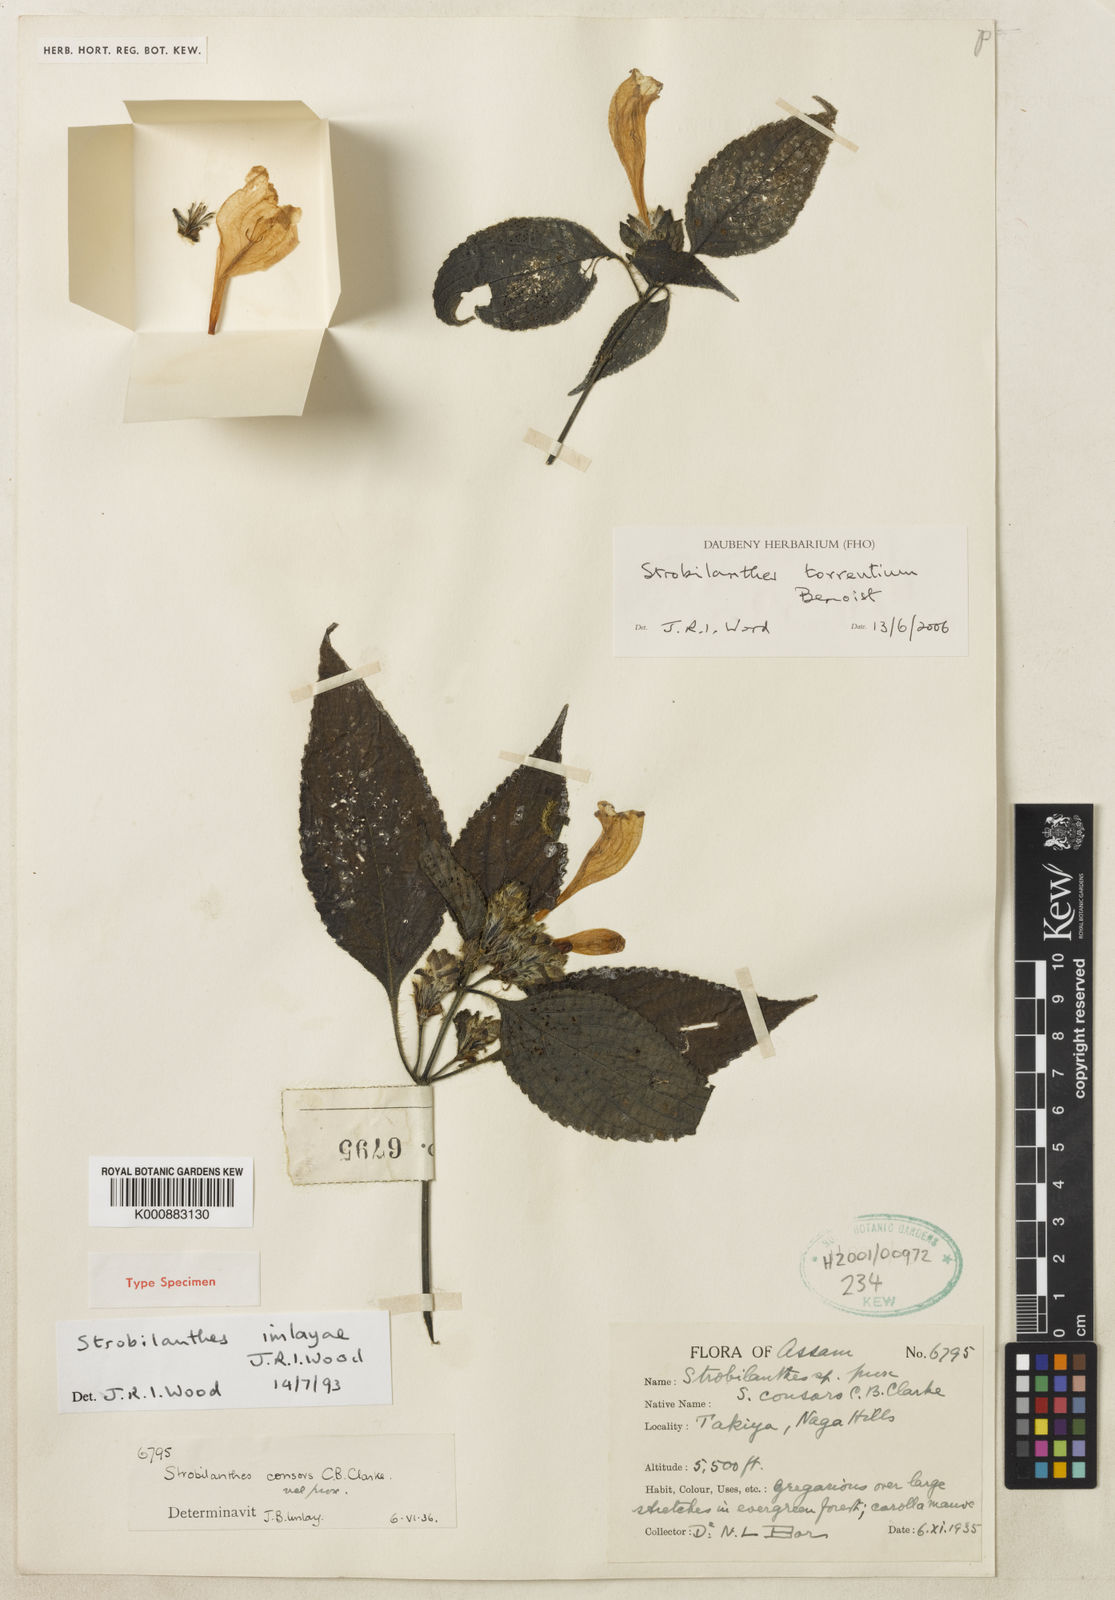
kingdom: Plantae
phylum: Tracheophyta
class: Magnoliopsida
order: Lamiales
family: Acanthaceae
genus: Strobilanthes
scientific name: Strobilanthes torrentium
